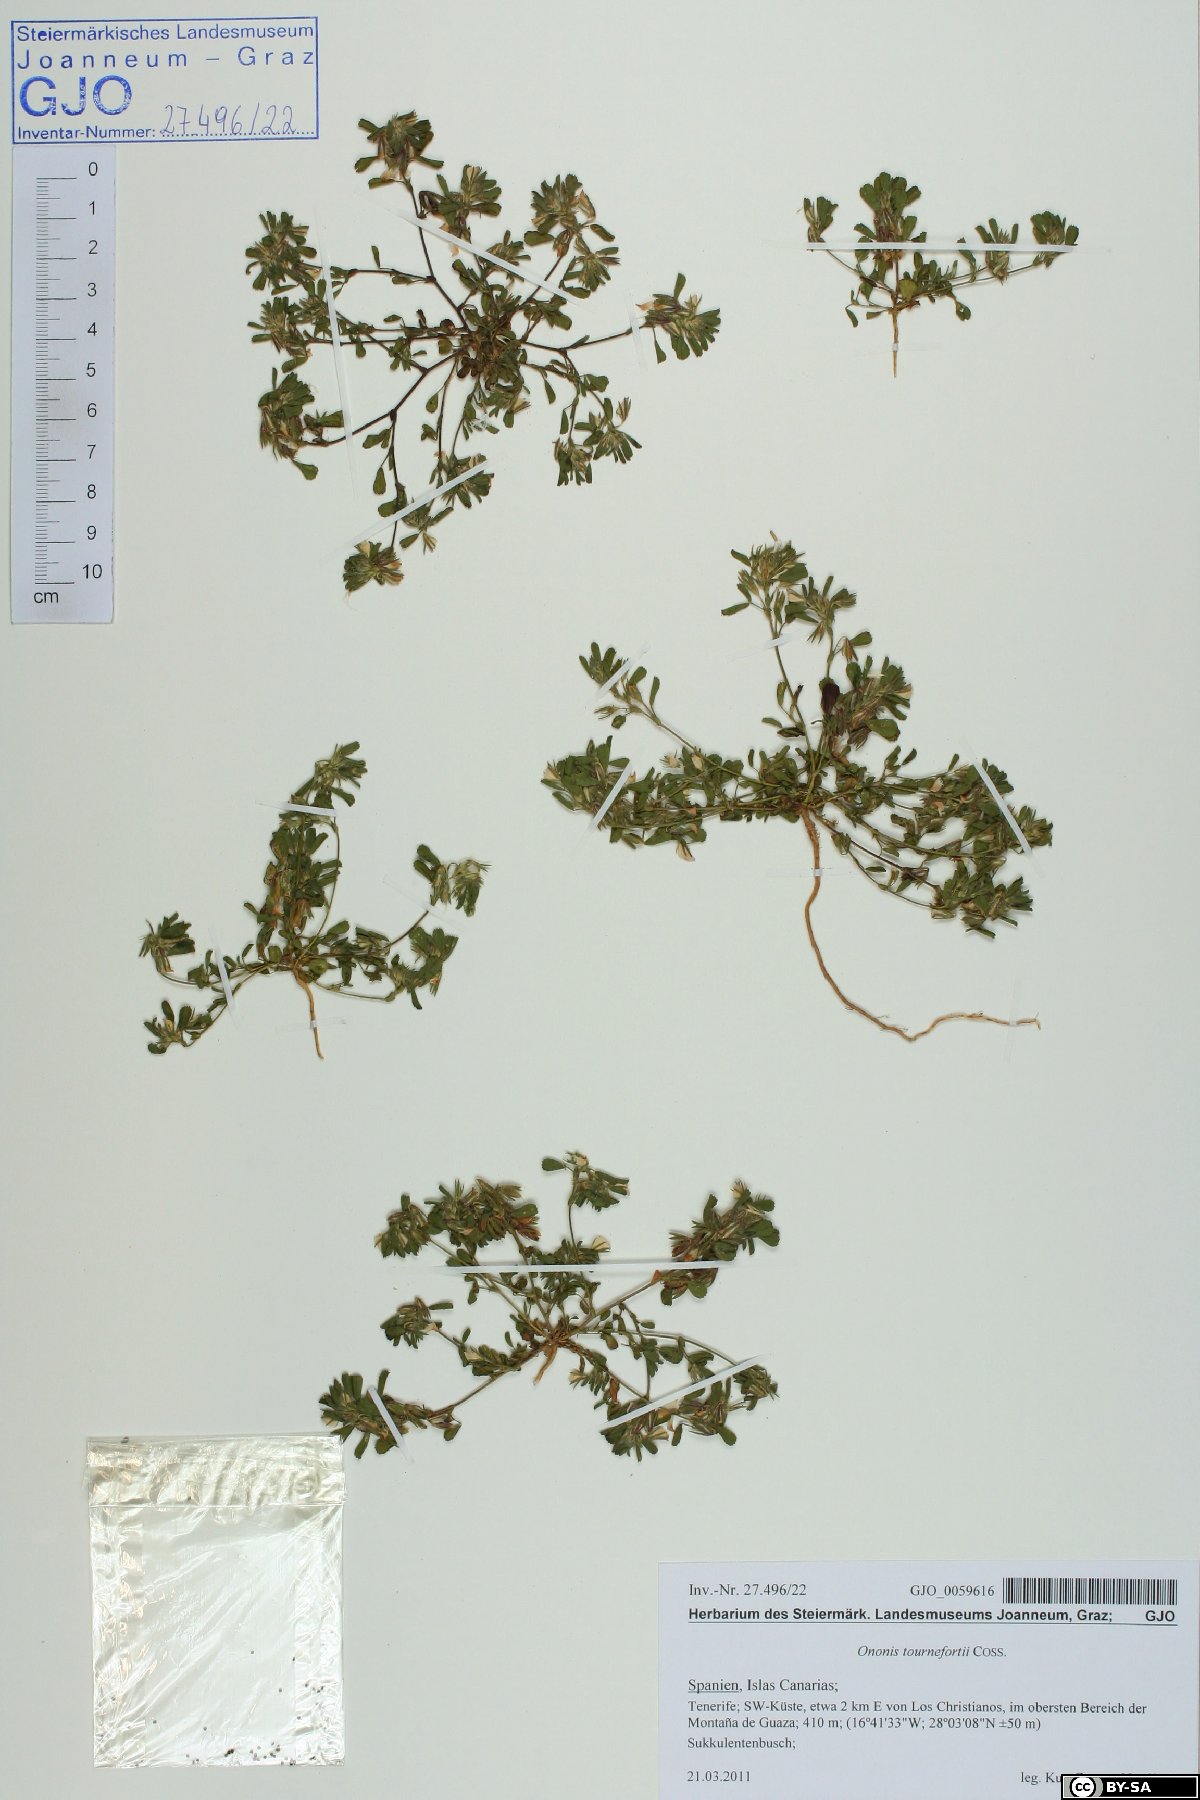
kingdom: Plantae
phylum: Tracheophyta
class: Magnoliopsida
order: Fabales
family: Fabaceae
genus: Ononis
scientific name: Ononis tournefortii
